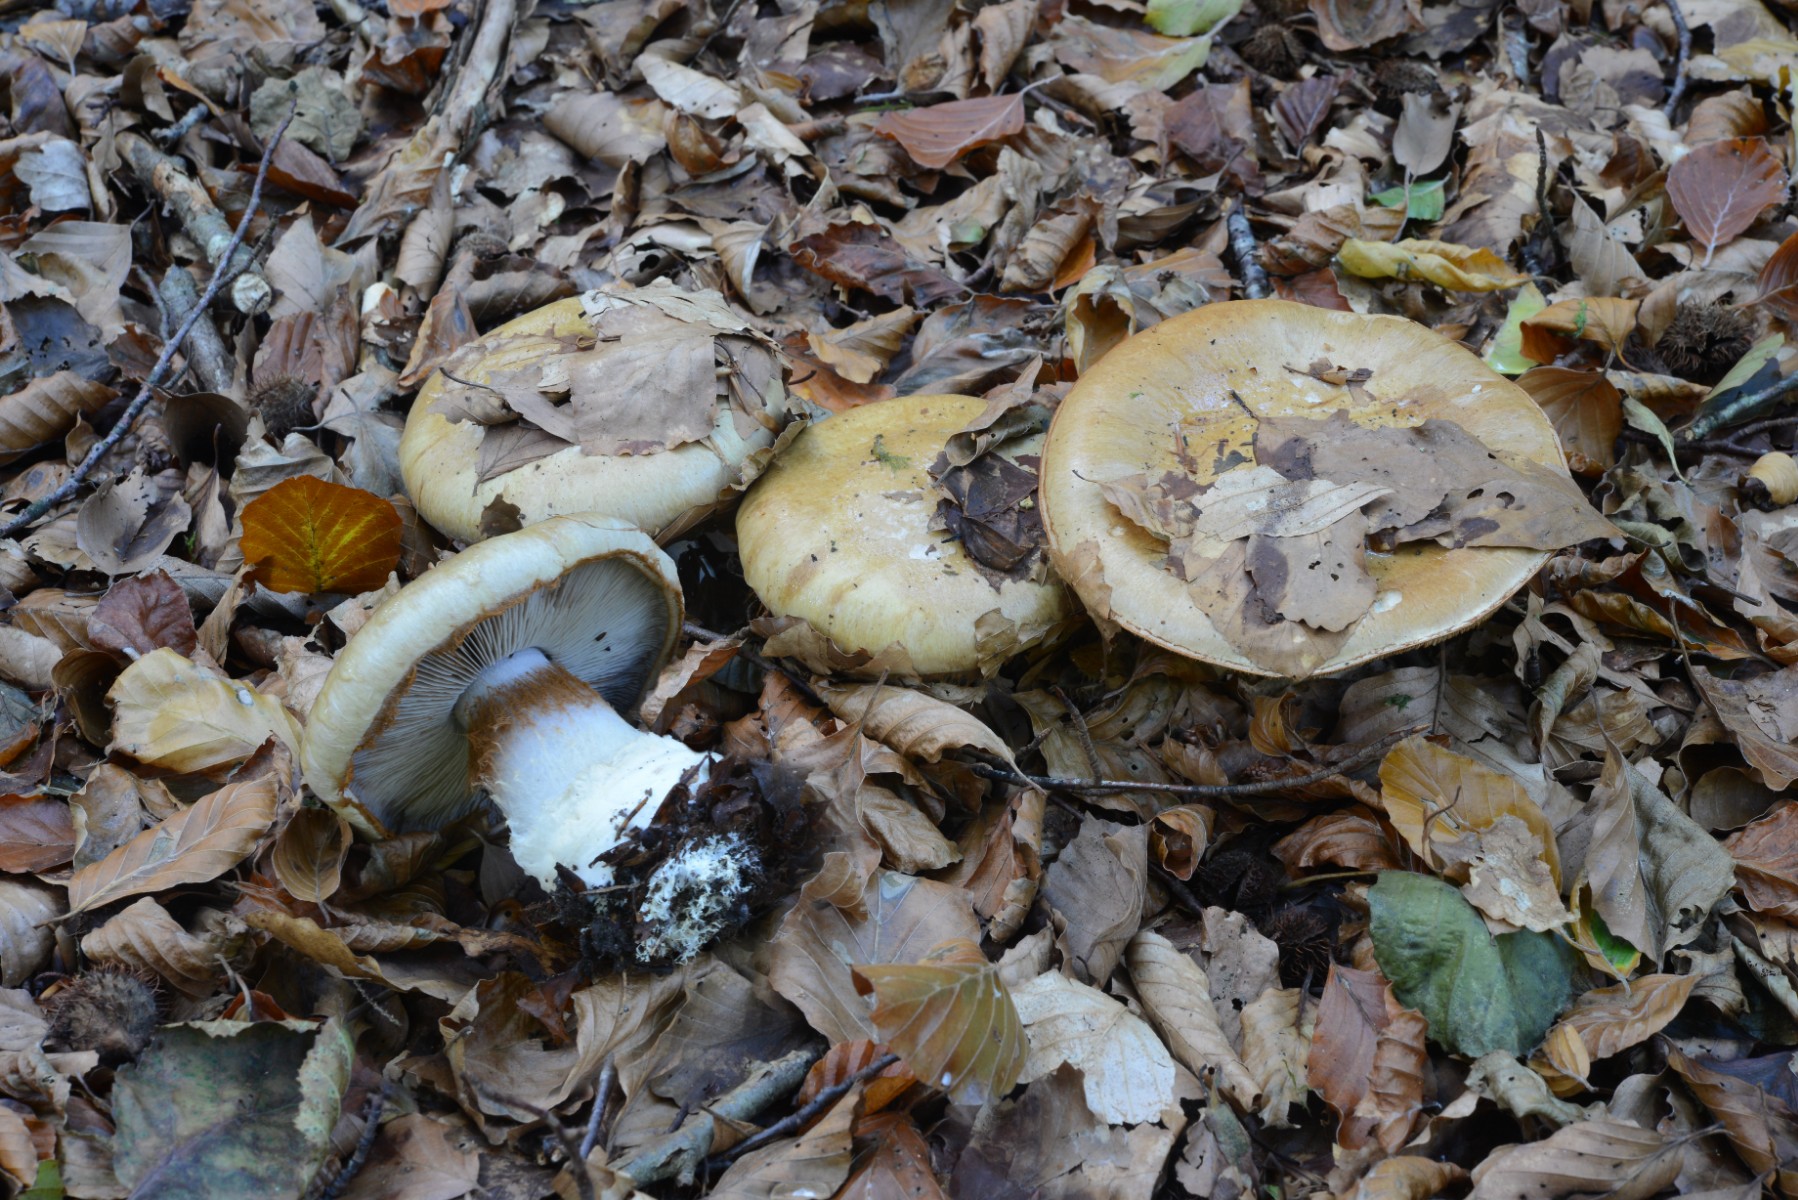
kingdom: Fungi
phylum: Basidiomycota
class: Agaricomycetes
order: Agaricales
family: Cortinariaceae
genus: Cortinarius
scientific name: Cortinarius anserinus
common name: bøge-slørhat
